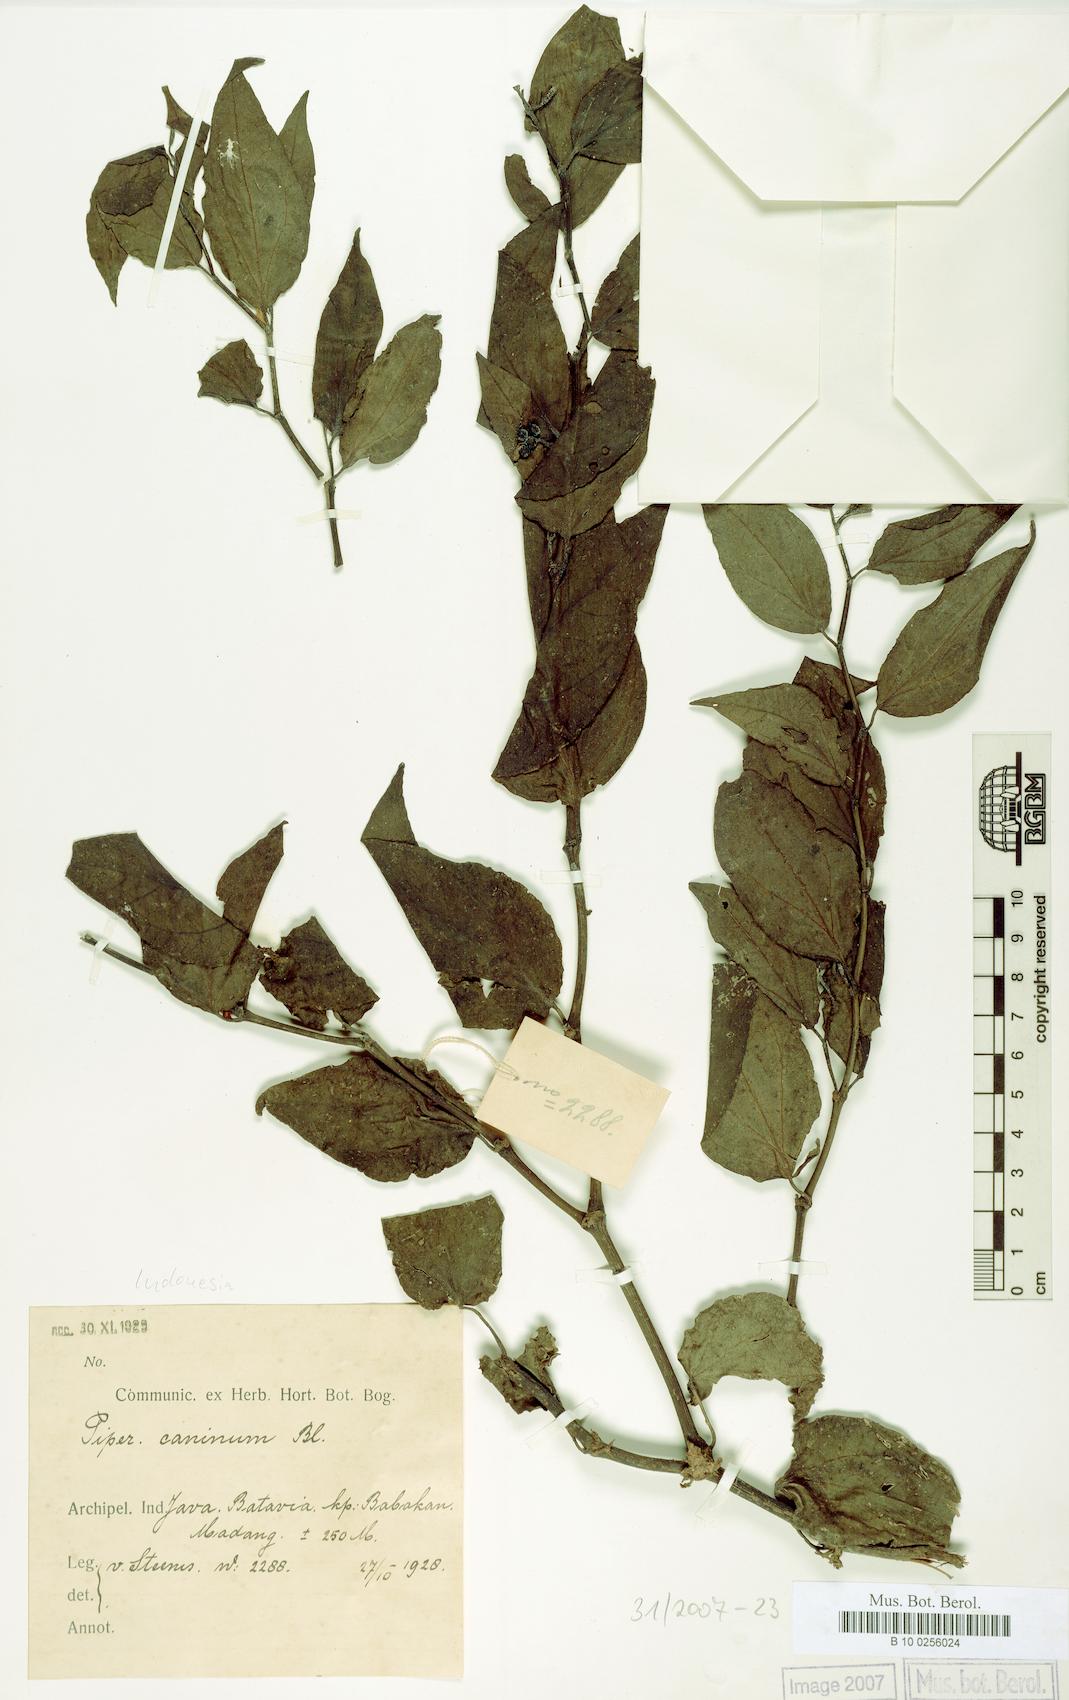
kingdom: Plantae
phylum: Tracheophyta
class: Magnoliopsida
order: Piperales
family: Piperaceae
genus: Piper
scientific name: Piper lanatum
